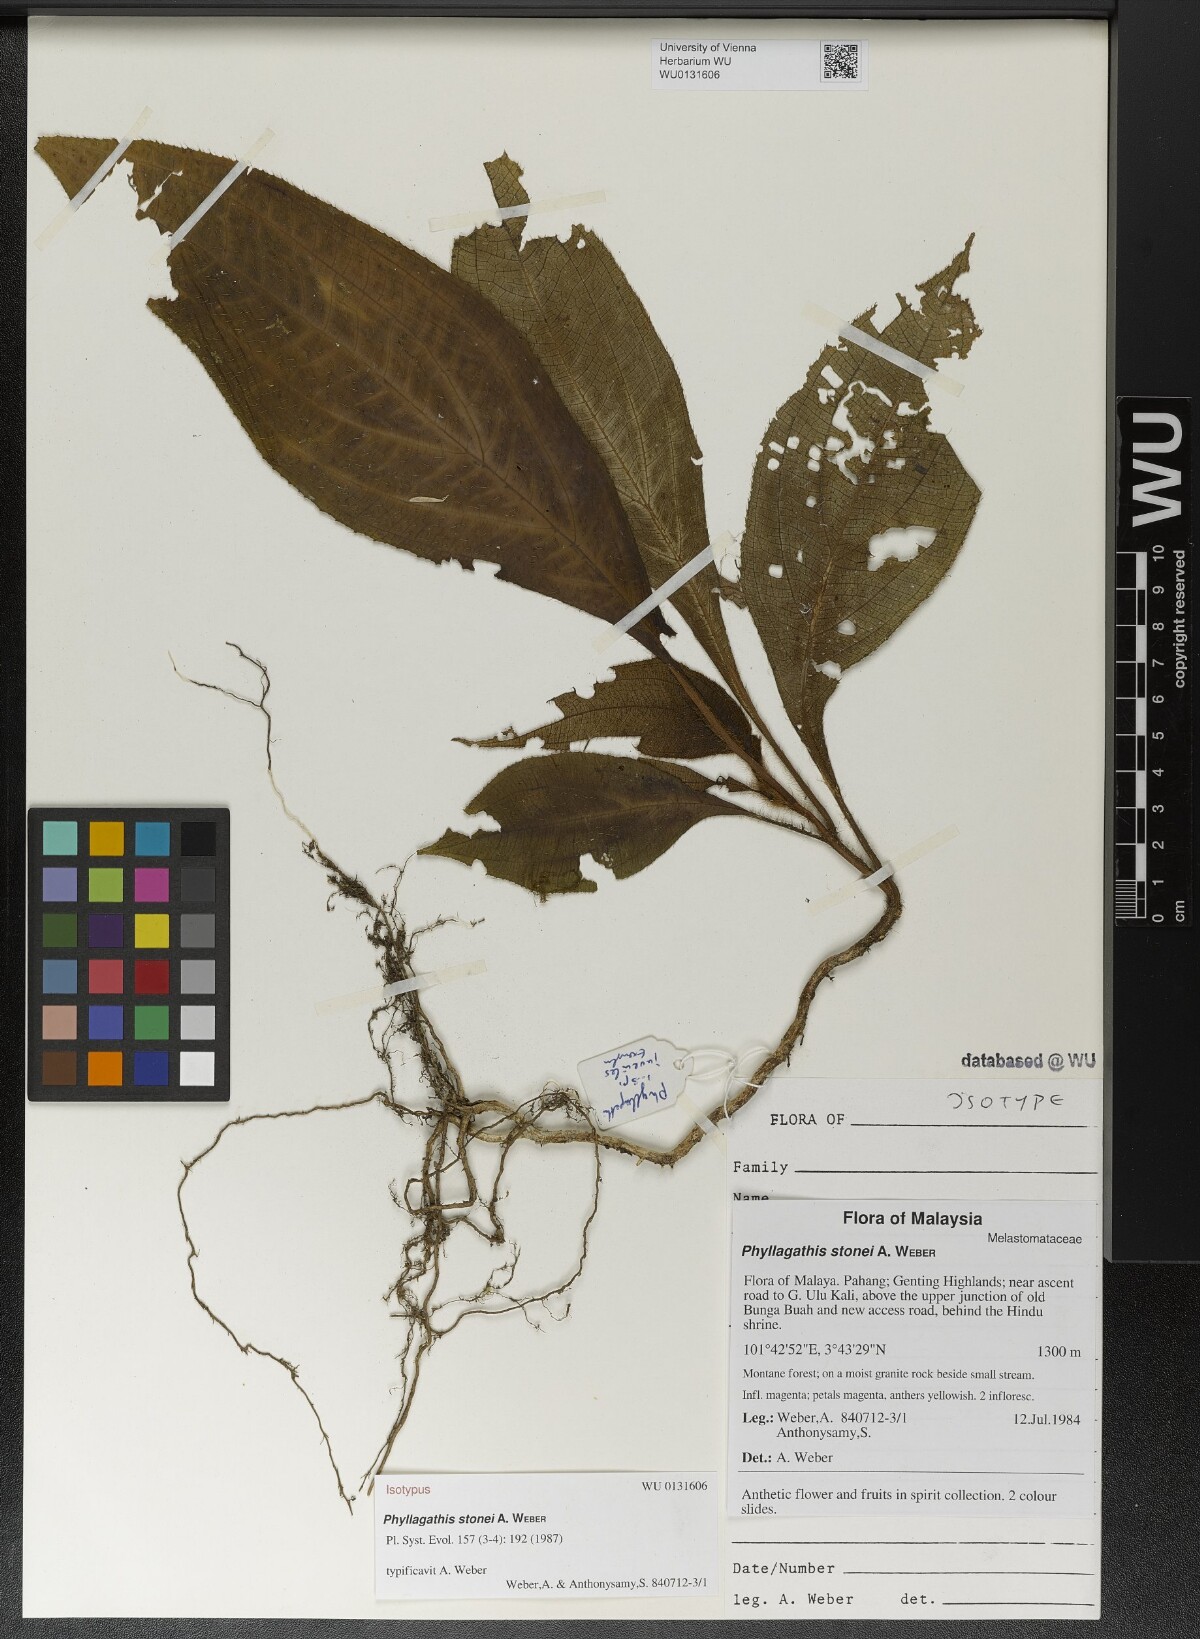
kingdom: Plantae
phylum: Tracheophyta
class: Magnoliopsida
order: Myrtales
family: Melastomataceae
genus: Phyllagathis
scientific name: Phyllagathis tuberculata
